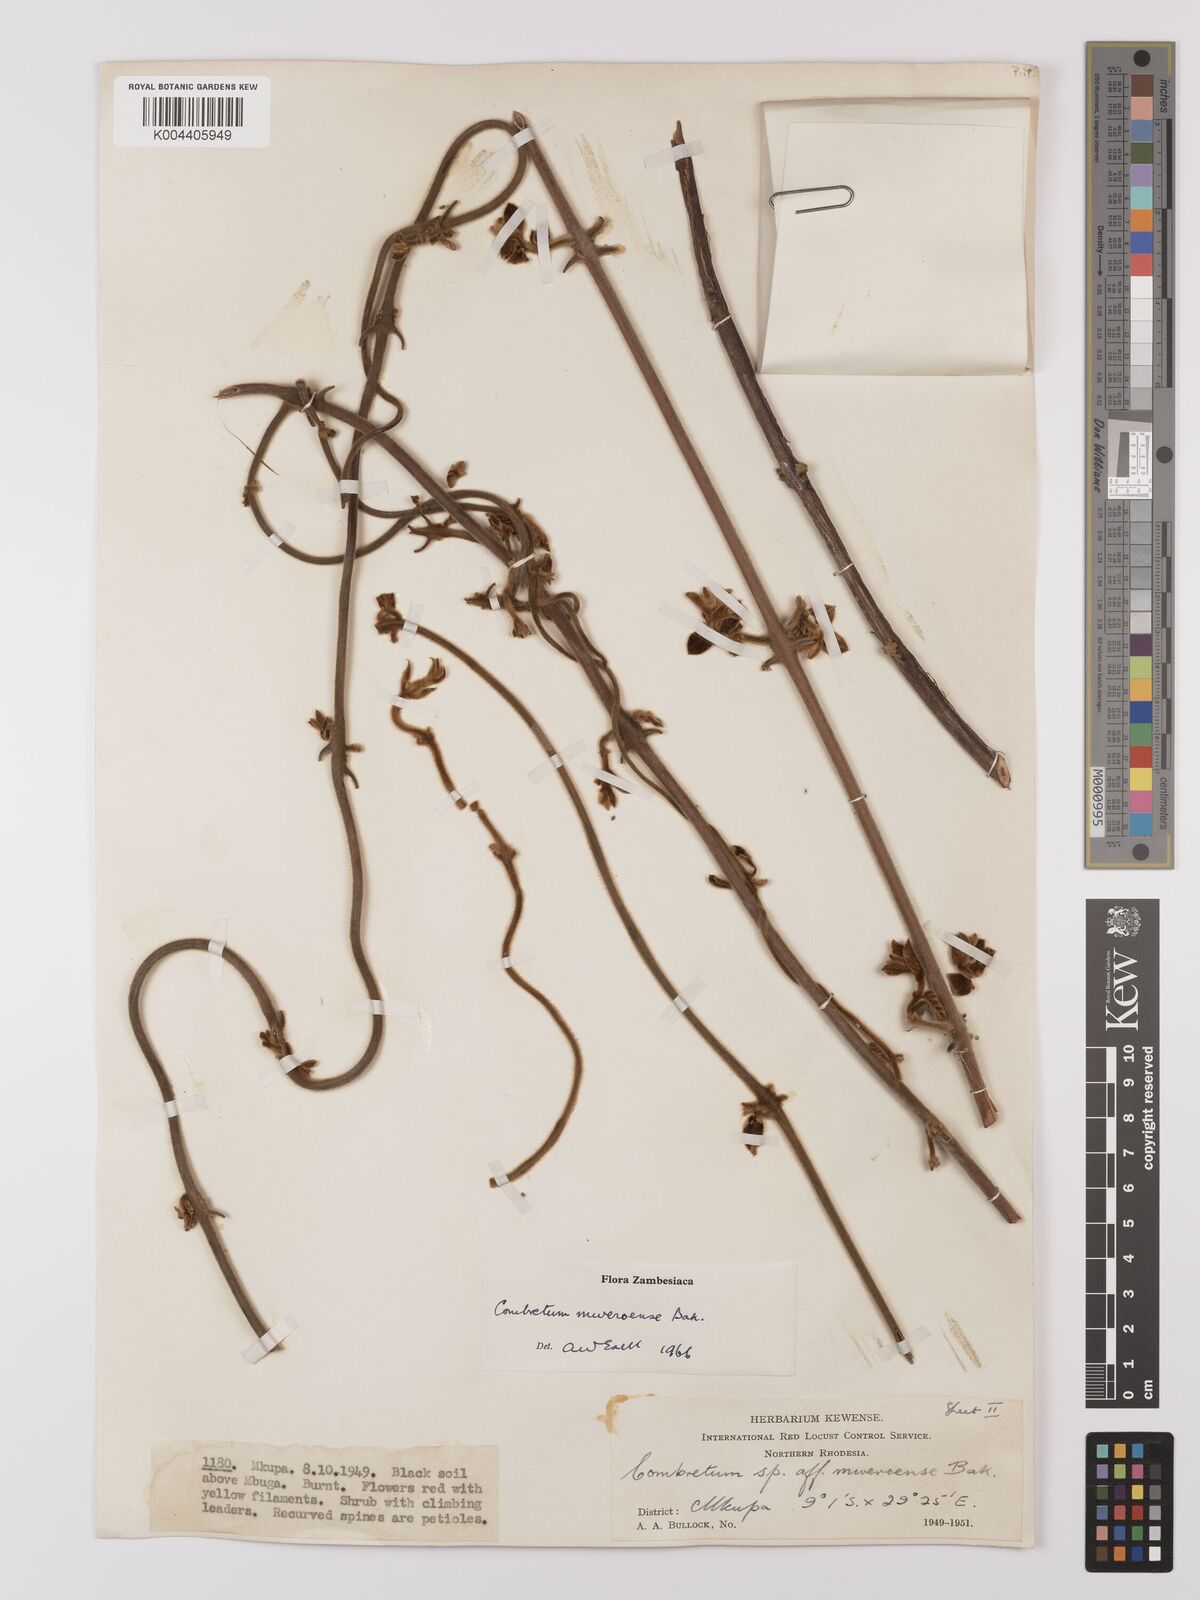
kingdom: Plantae
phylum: Tracheophyta
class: Magnoliopsida
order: Myrtales
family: Combretaceae
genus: Combretum
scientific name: Combretum mweroense
